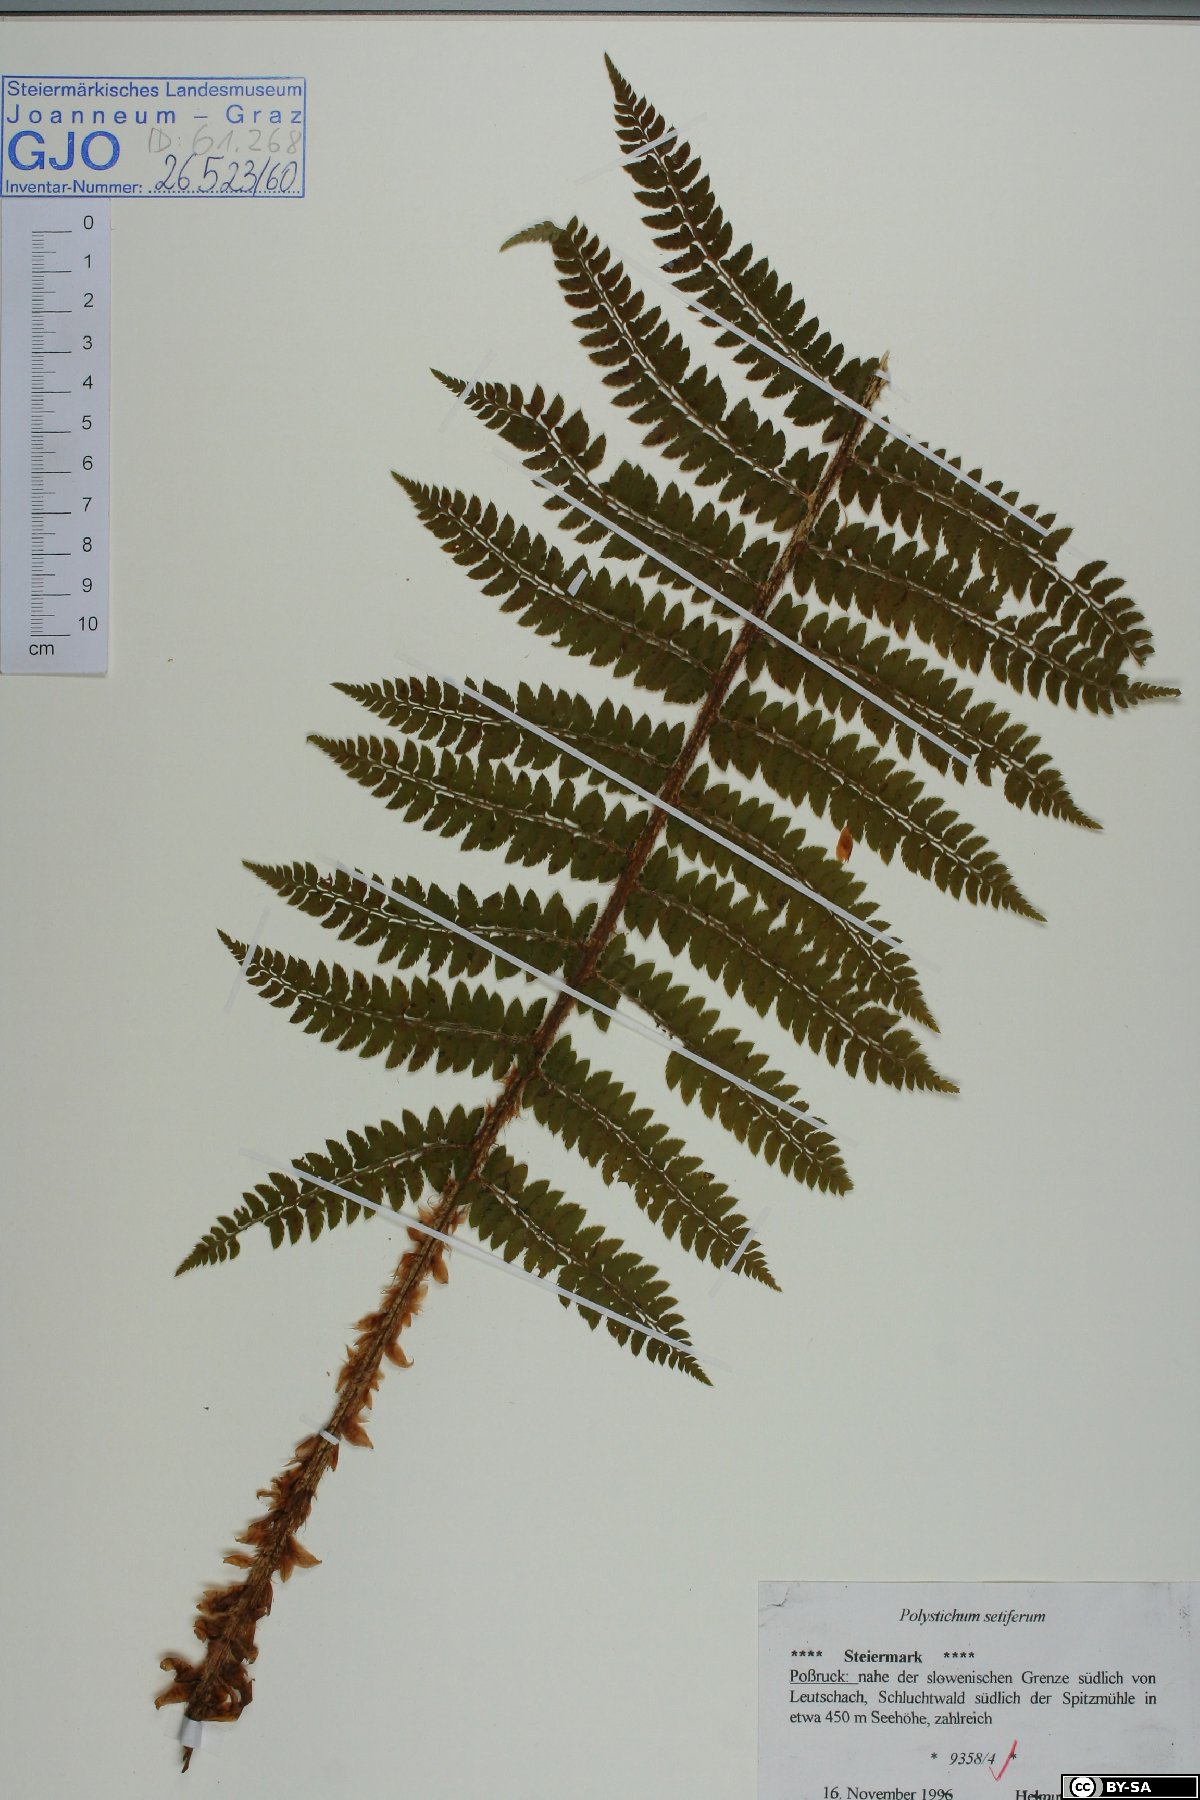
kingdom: Plantae
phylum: Tracheophyta
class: Polypodiopsida
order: Polypodiales
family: Dryopteridaceae
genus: Polystichum
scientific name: Polystichum setiferum
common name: Soft shield-fern
